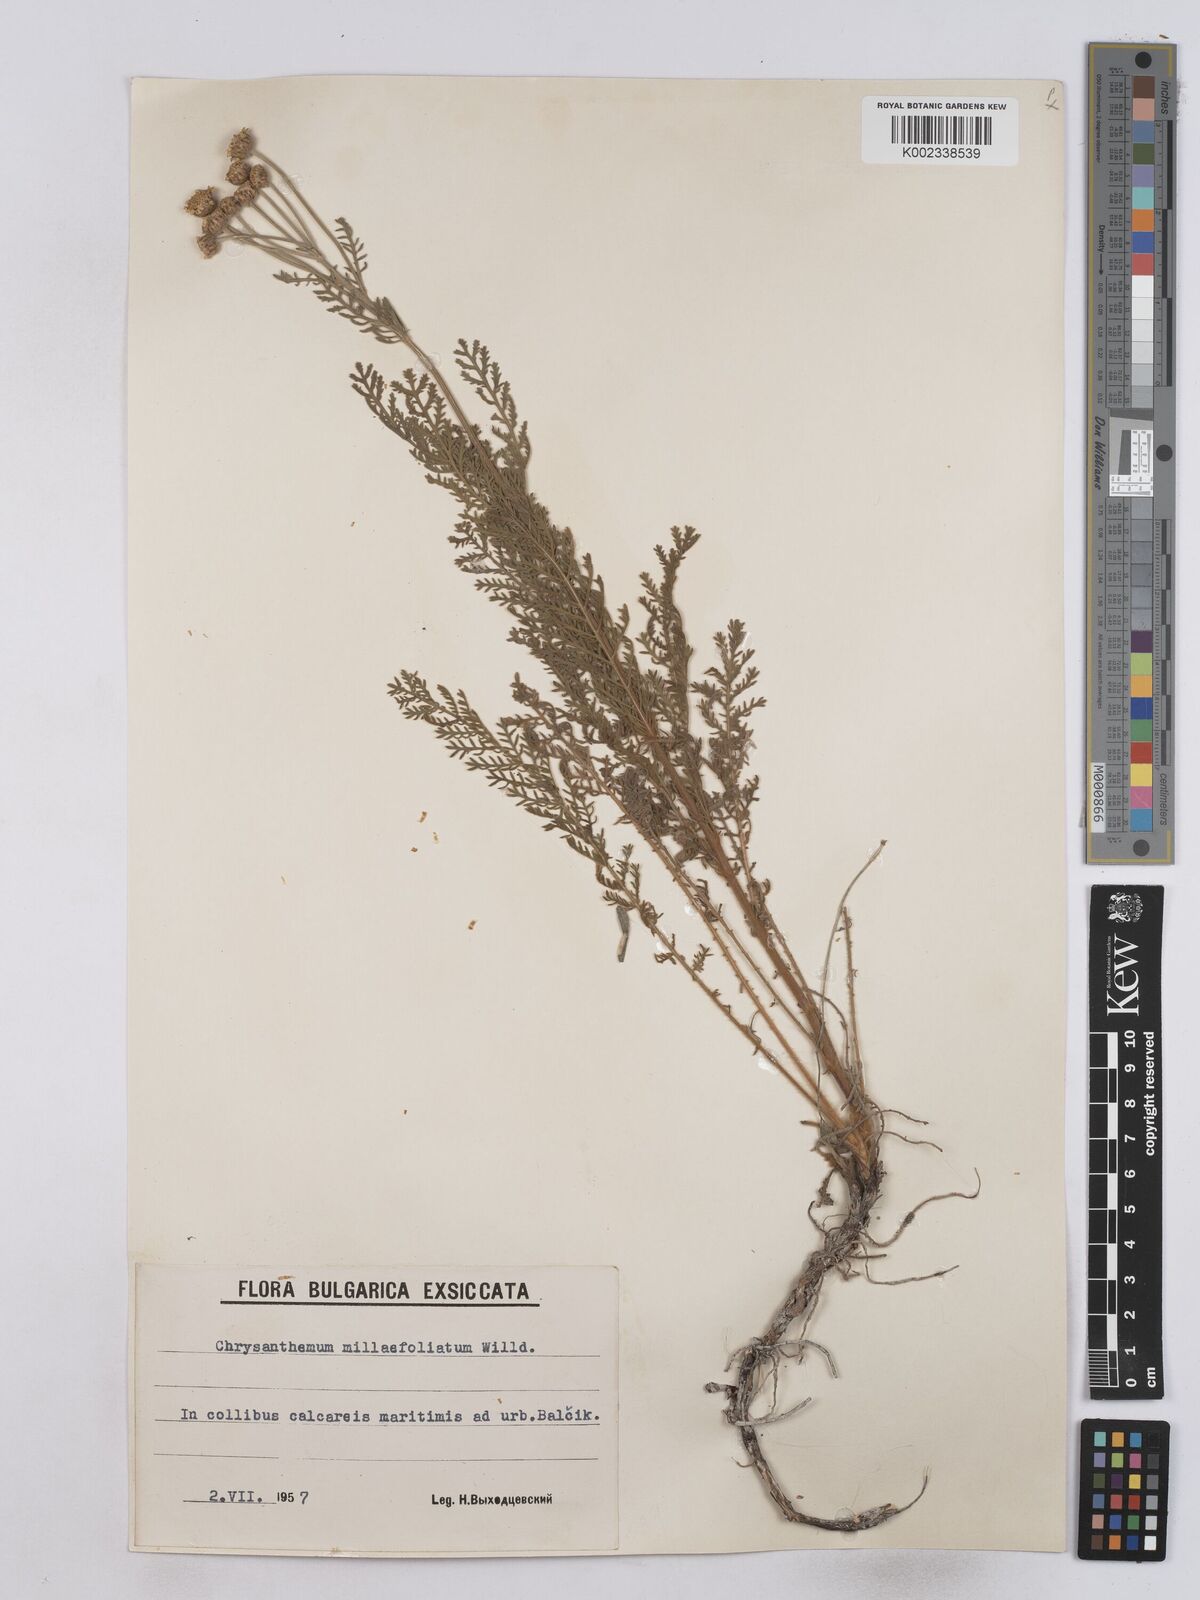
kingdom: Plantae
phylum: Tracheophyta
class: Magnoliopsida
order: Asterales
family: Asteraceae
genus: Tanacetum
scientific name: Tanacetum millefolium
